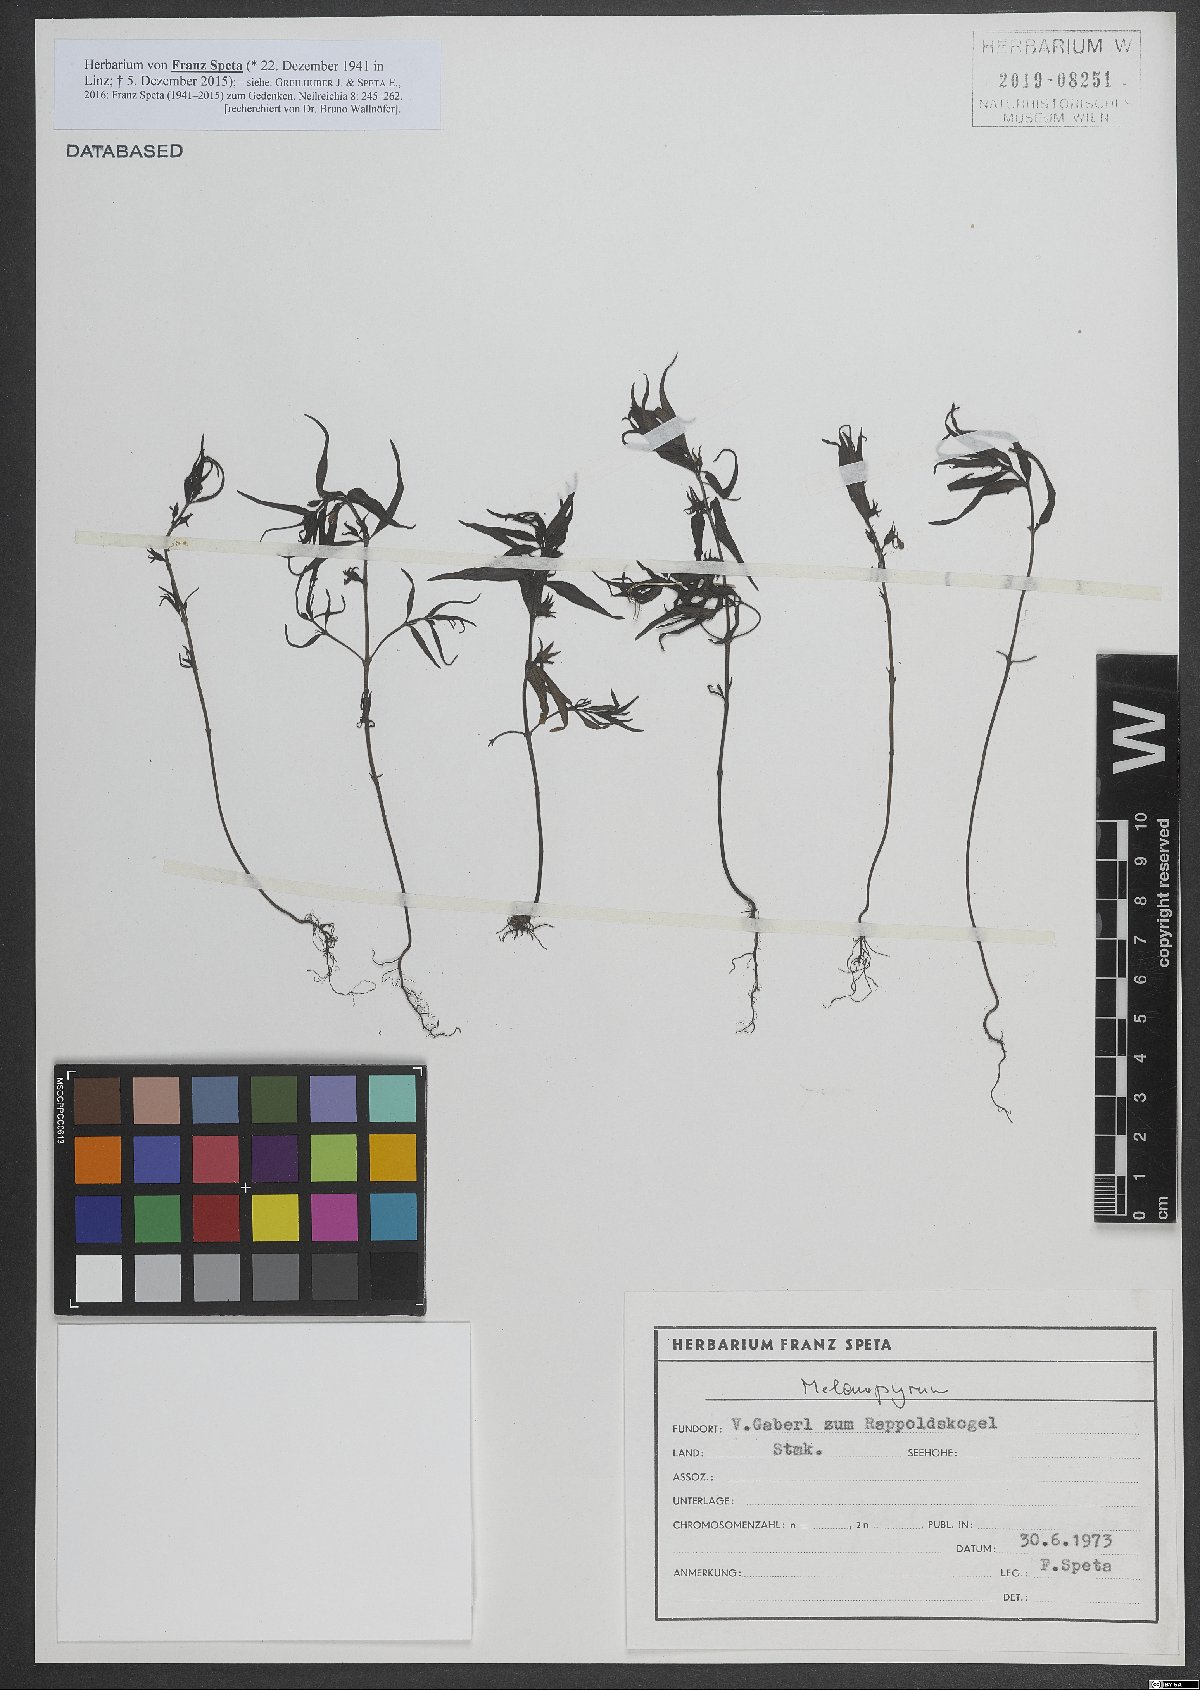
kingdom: Plantae
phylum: Tracheophyta
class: Magnoliopsida
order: Lamiales
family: Orobanchaceae
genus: Melampyrum
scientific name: Melampyrum
